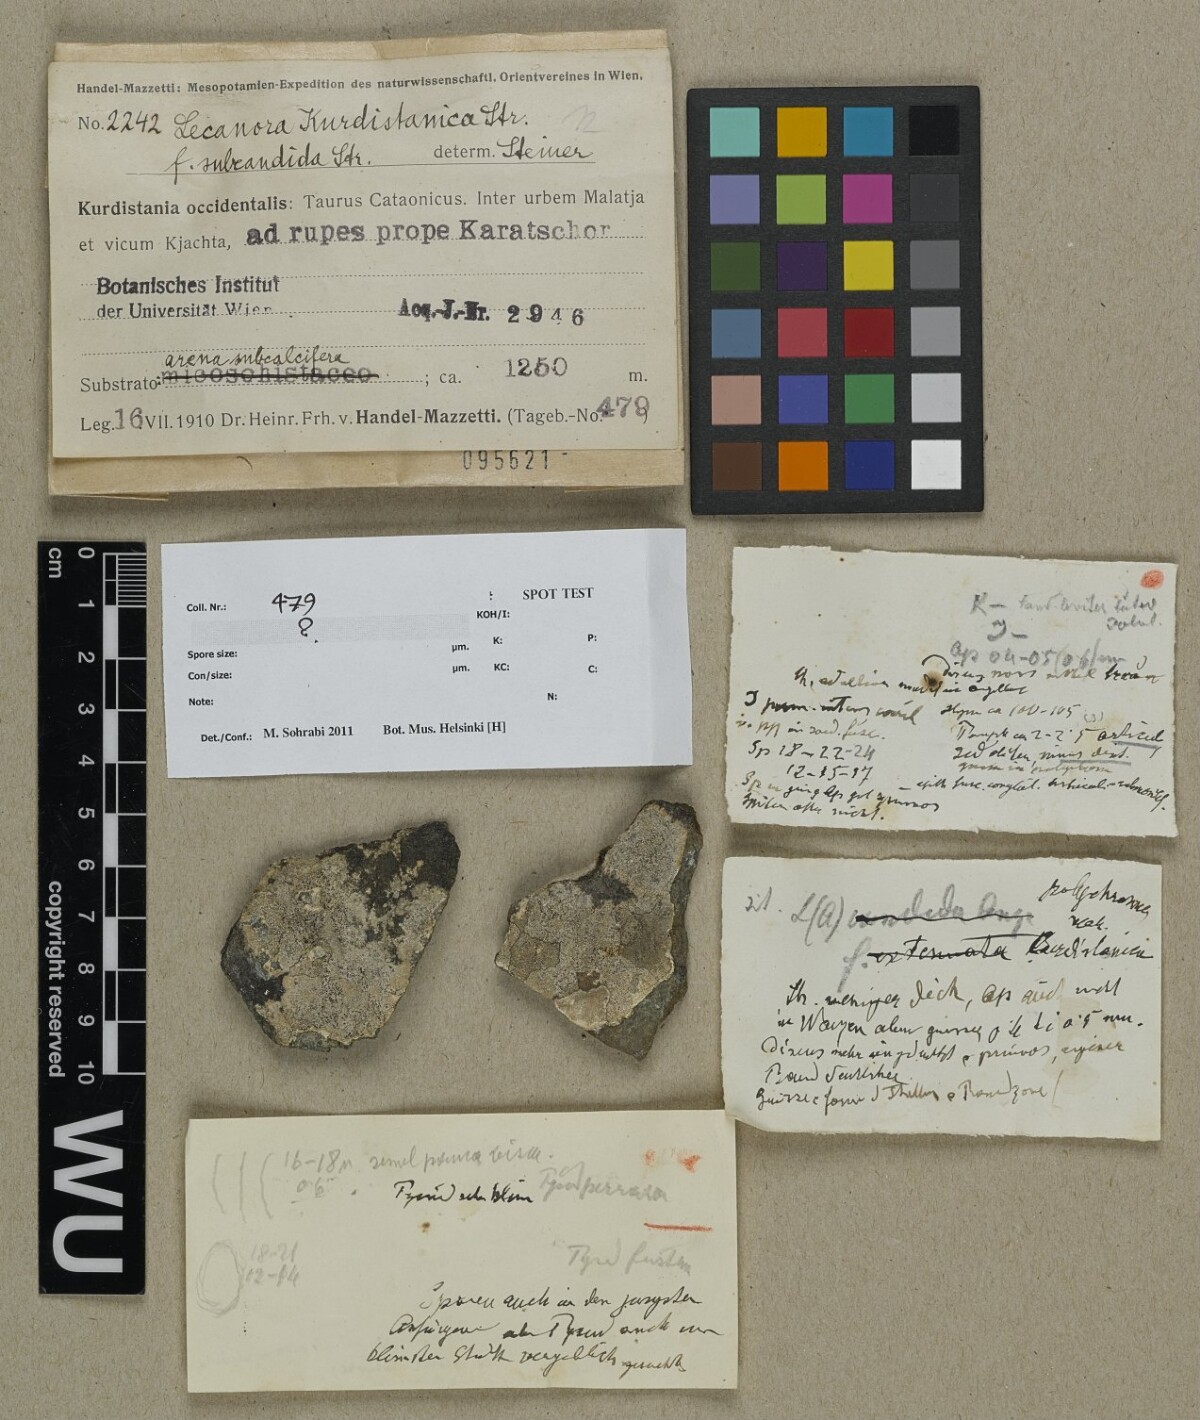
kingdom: Fungi
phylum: Ascomycota
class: Lecanoromycetes
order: Lecanorales
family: Lecanoraceae
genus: Lecanora
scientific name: Lecanora
